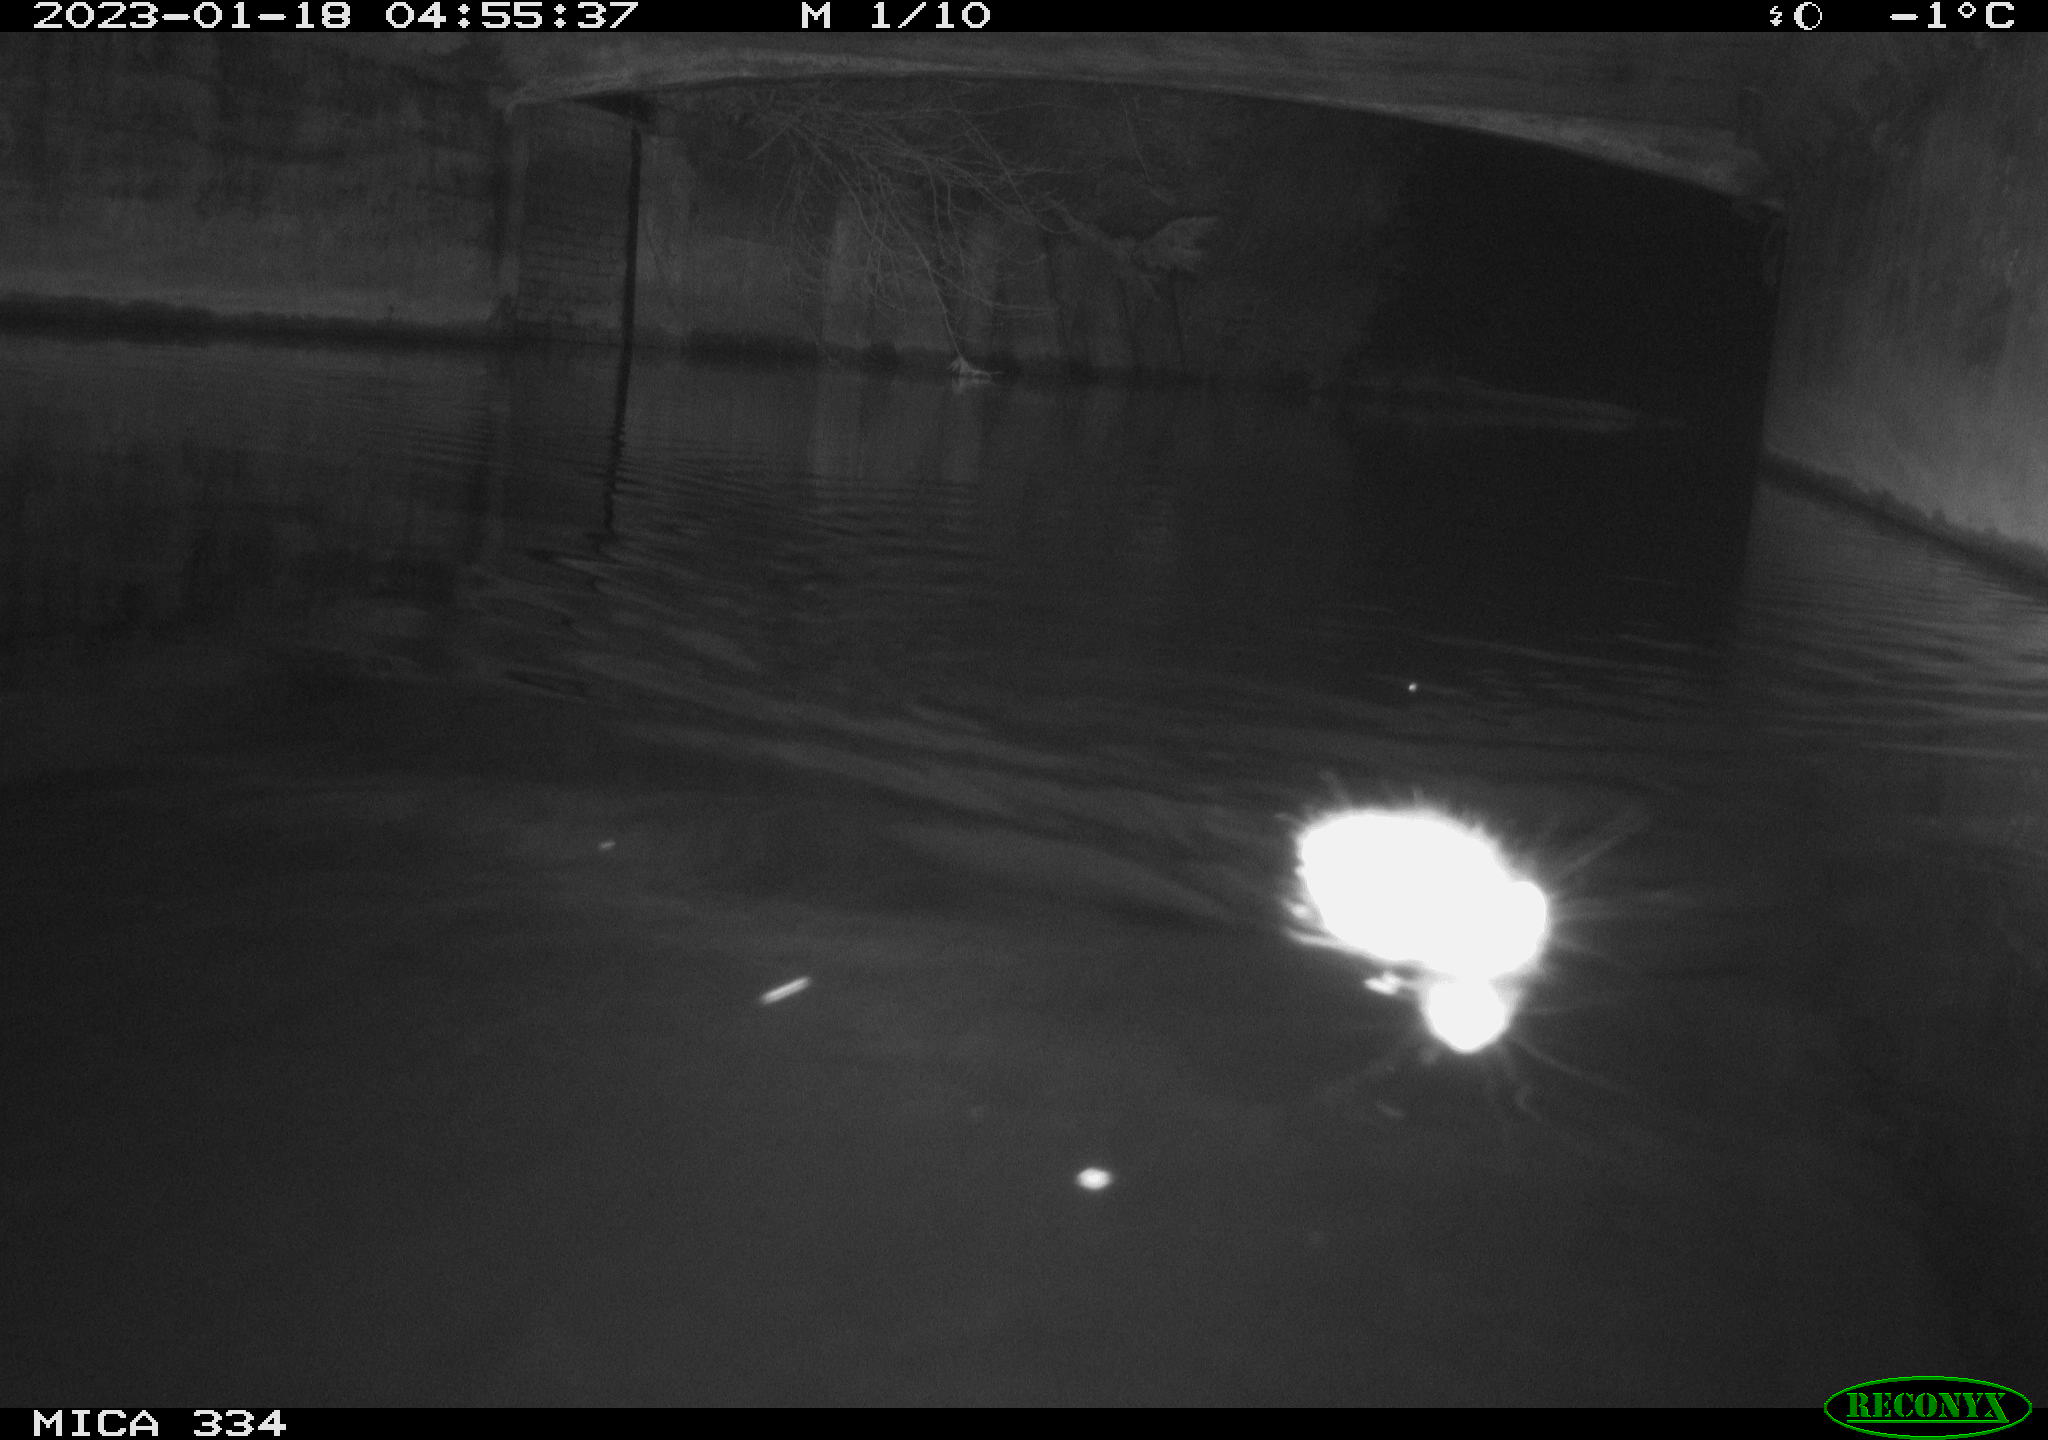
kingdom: Animalia
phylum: Chordata
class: Mammalia
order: Rodentia
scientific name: Rodentia
